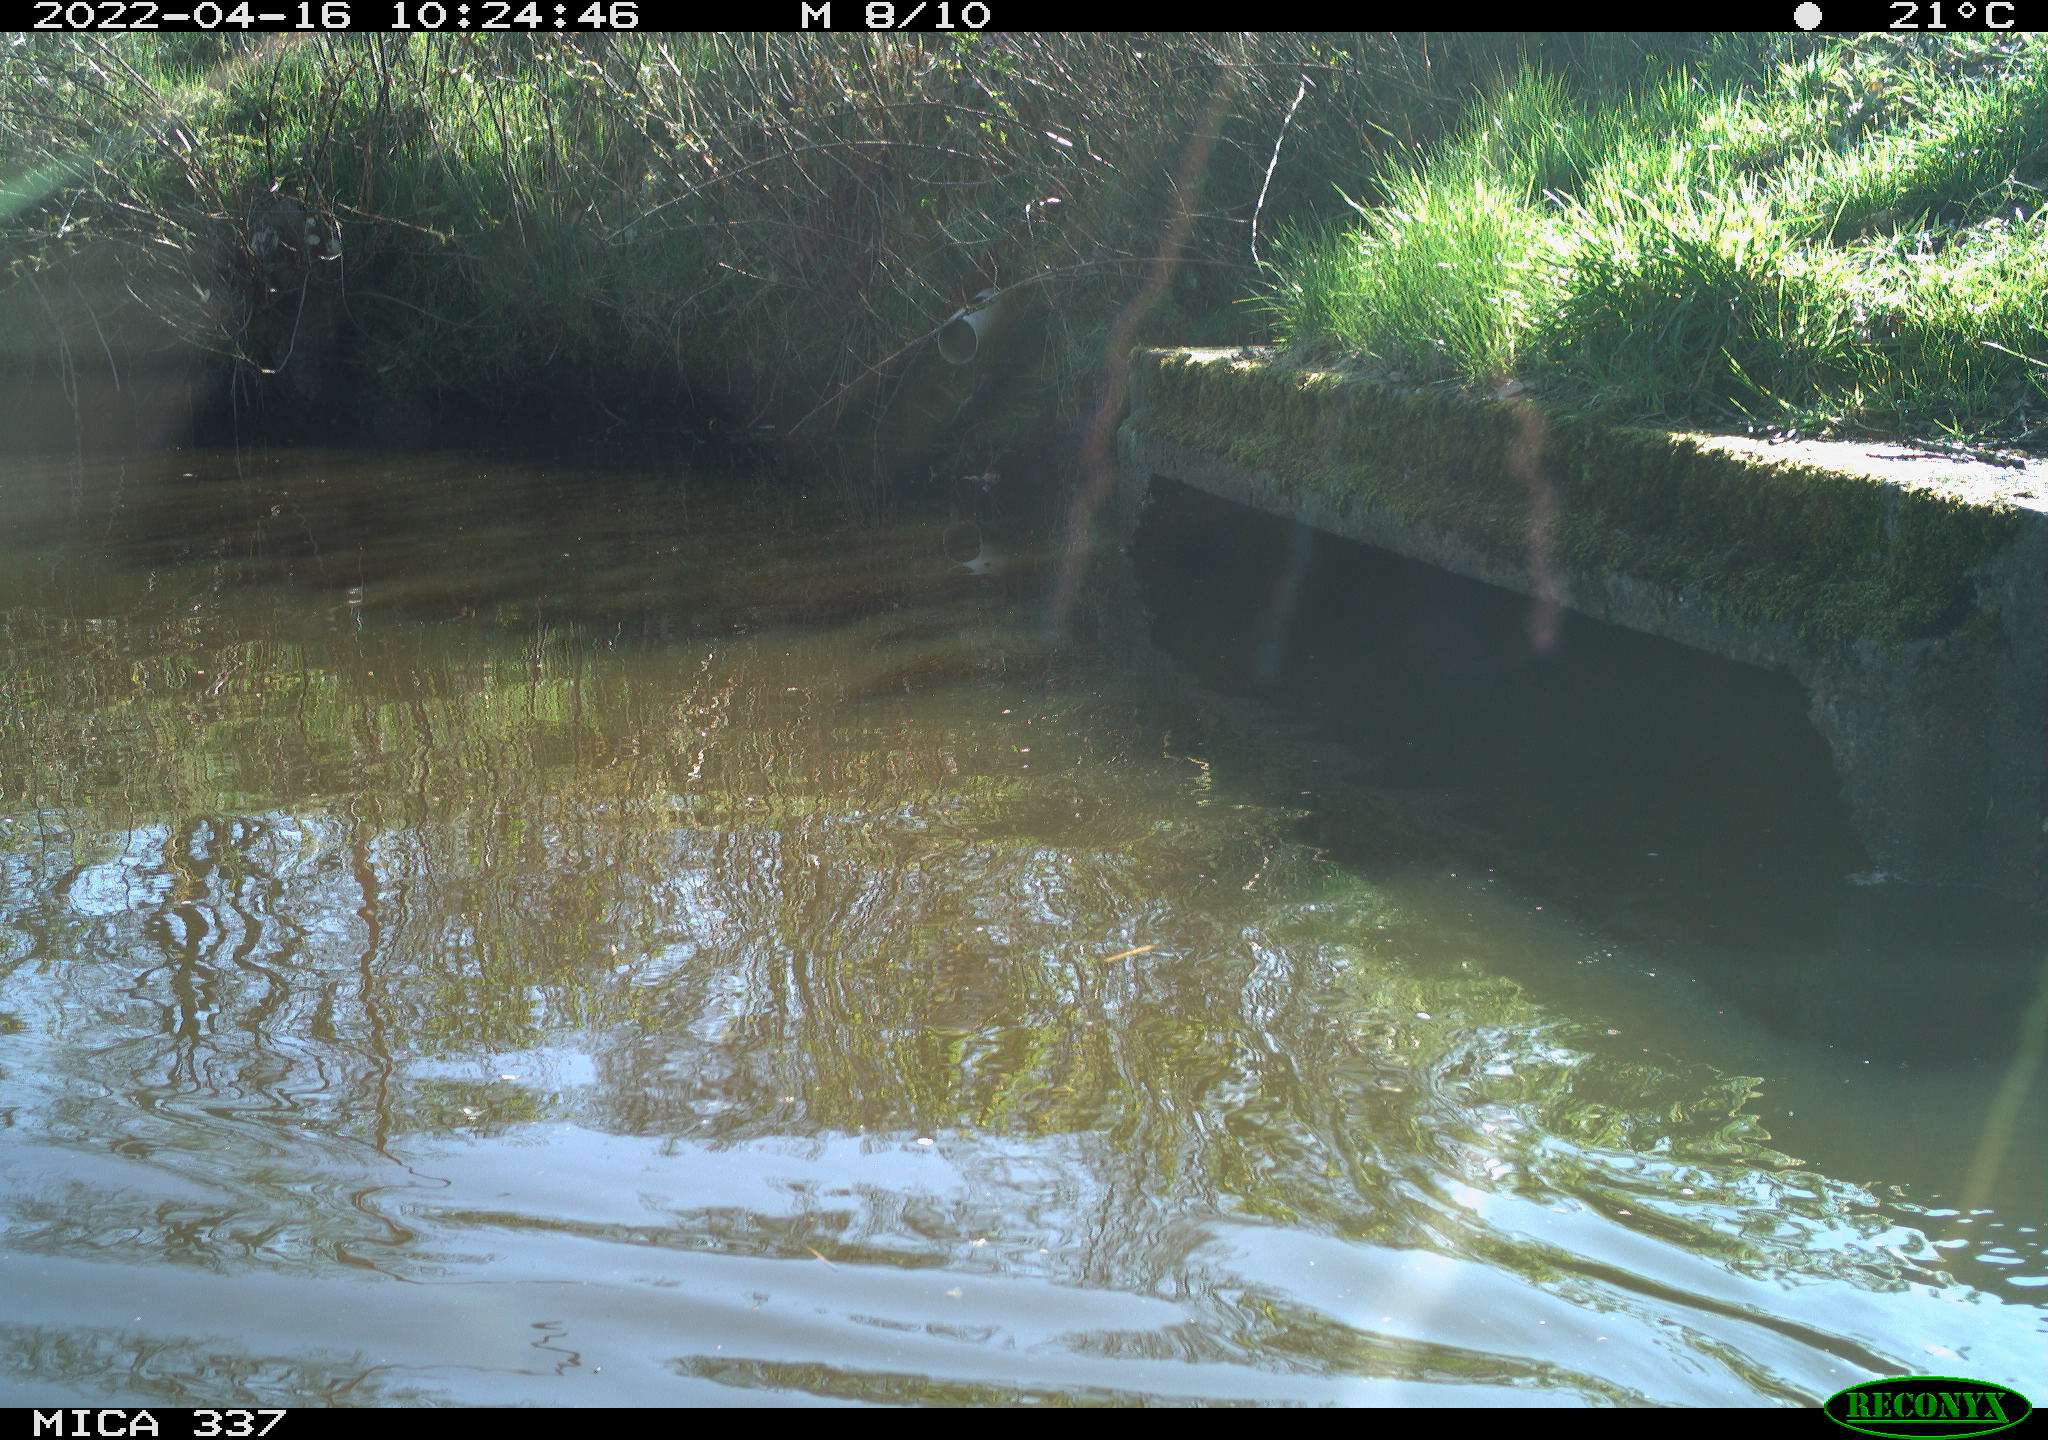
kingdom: Animalia
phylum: Chordata
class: Aves
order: Anseriformes
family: Anatidae
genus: Anas
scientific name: Anas platyrhynchos
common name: Mallard
